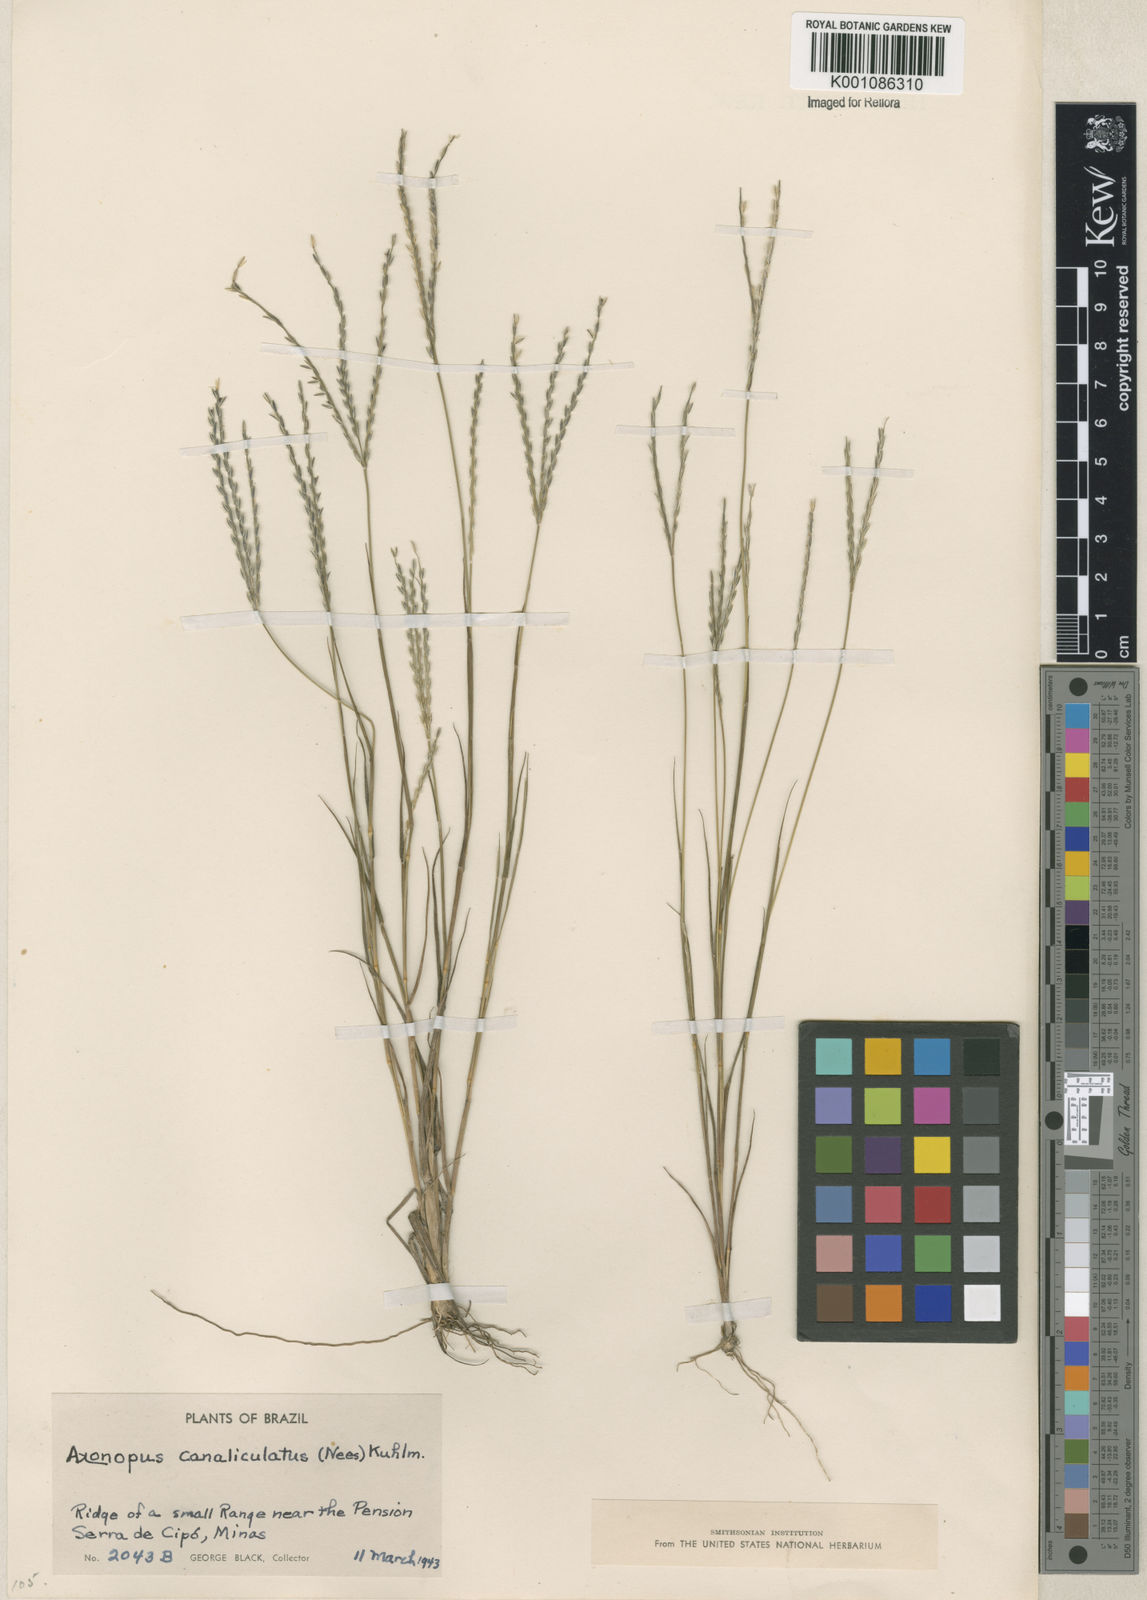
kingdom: Plantae
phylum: Tracheophyta
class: Liliopsida
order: Poales
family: Poaceae
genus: Axonopus
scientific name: Axonopus fastigiatus
